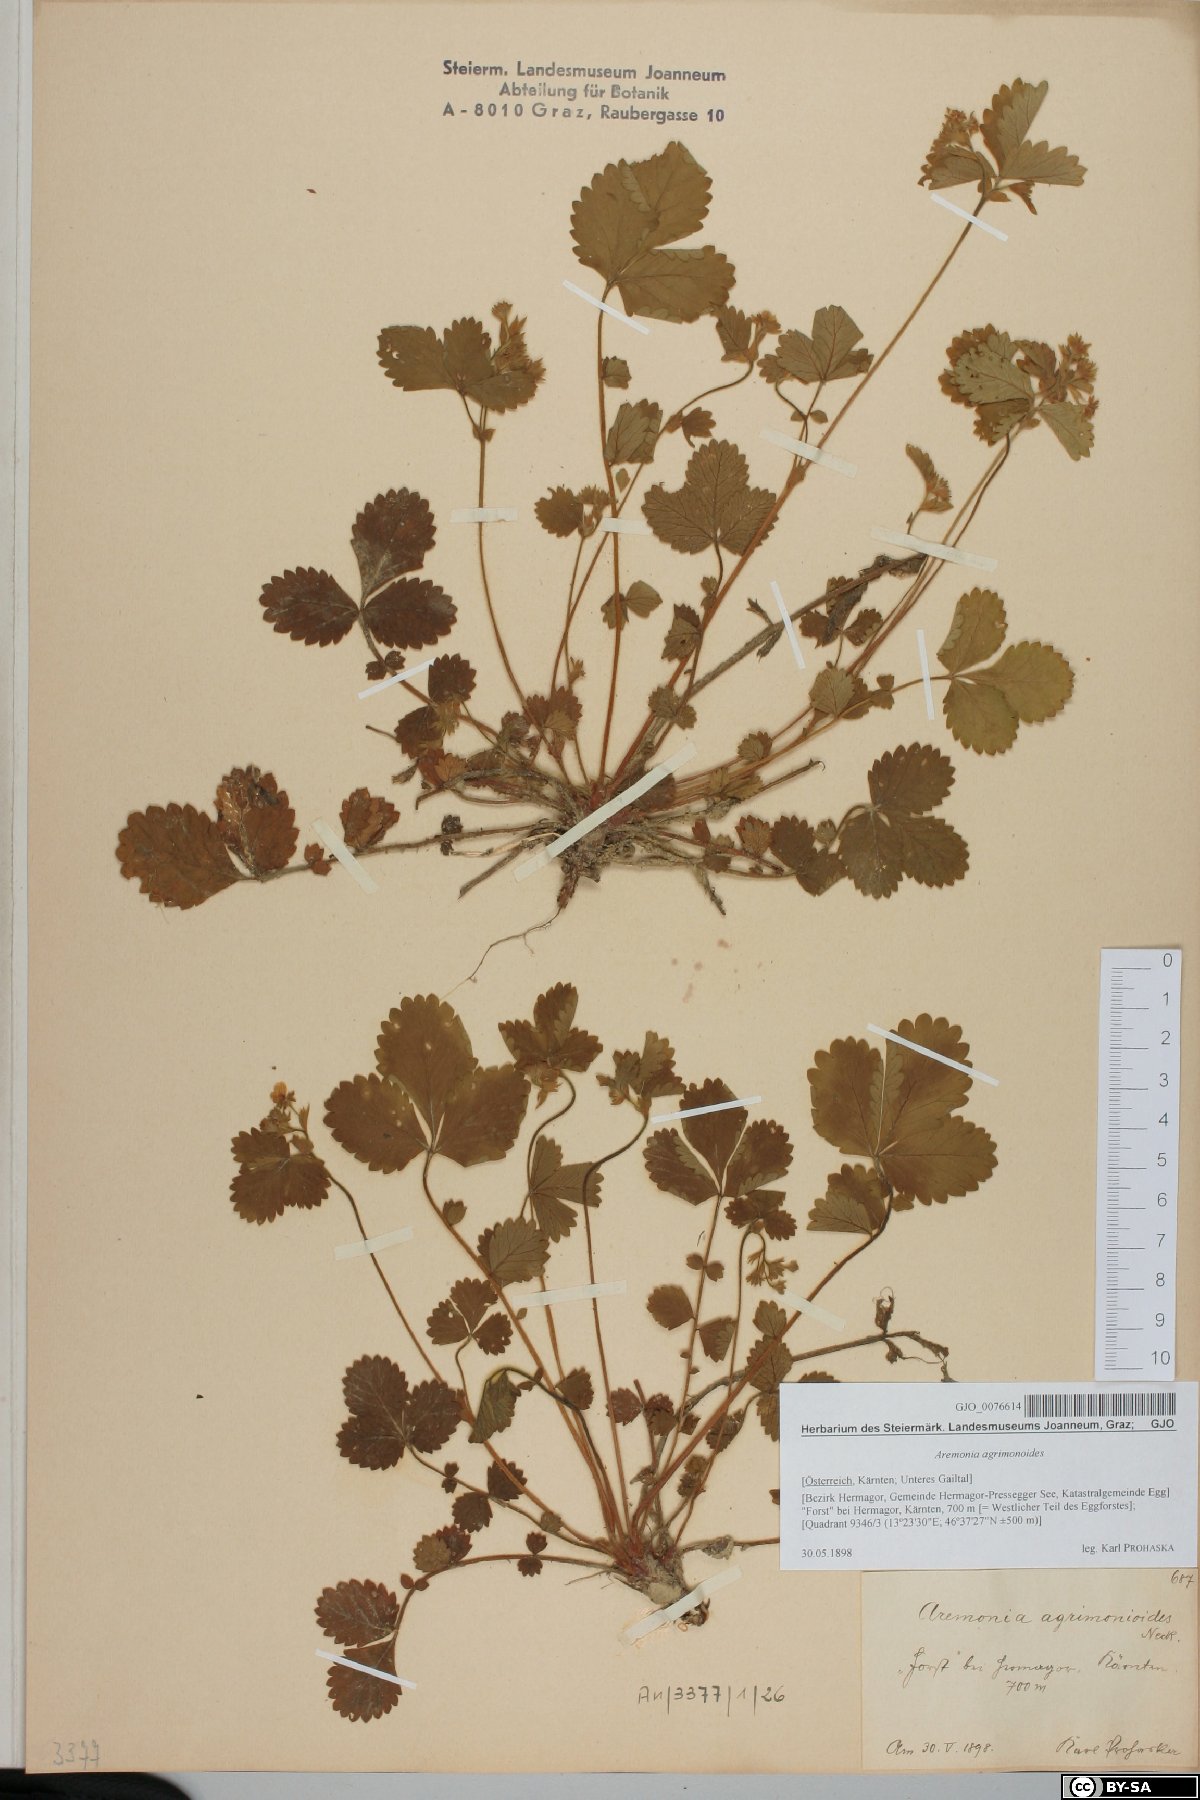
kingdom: Plantae
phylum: Tracheophyta
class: Magnoliopsida
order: Rosales
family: Rosaceae
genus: Aremonia
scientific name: Aremonia agrimonoides
